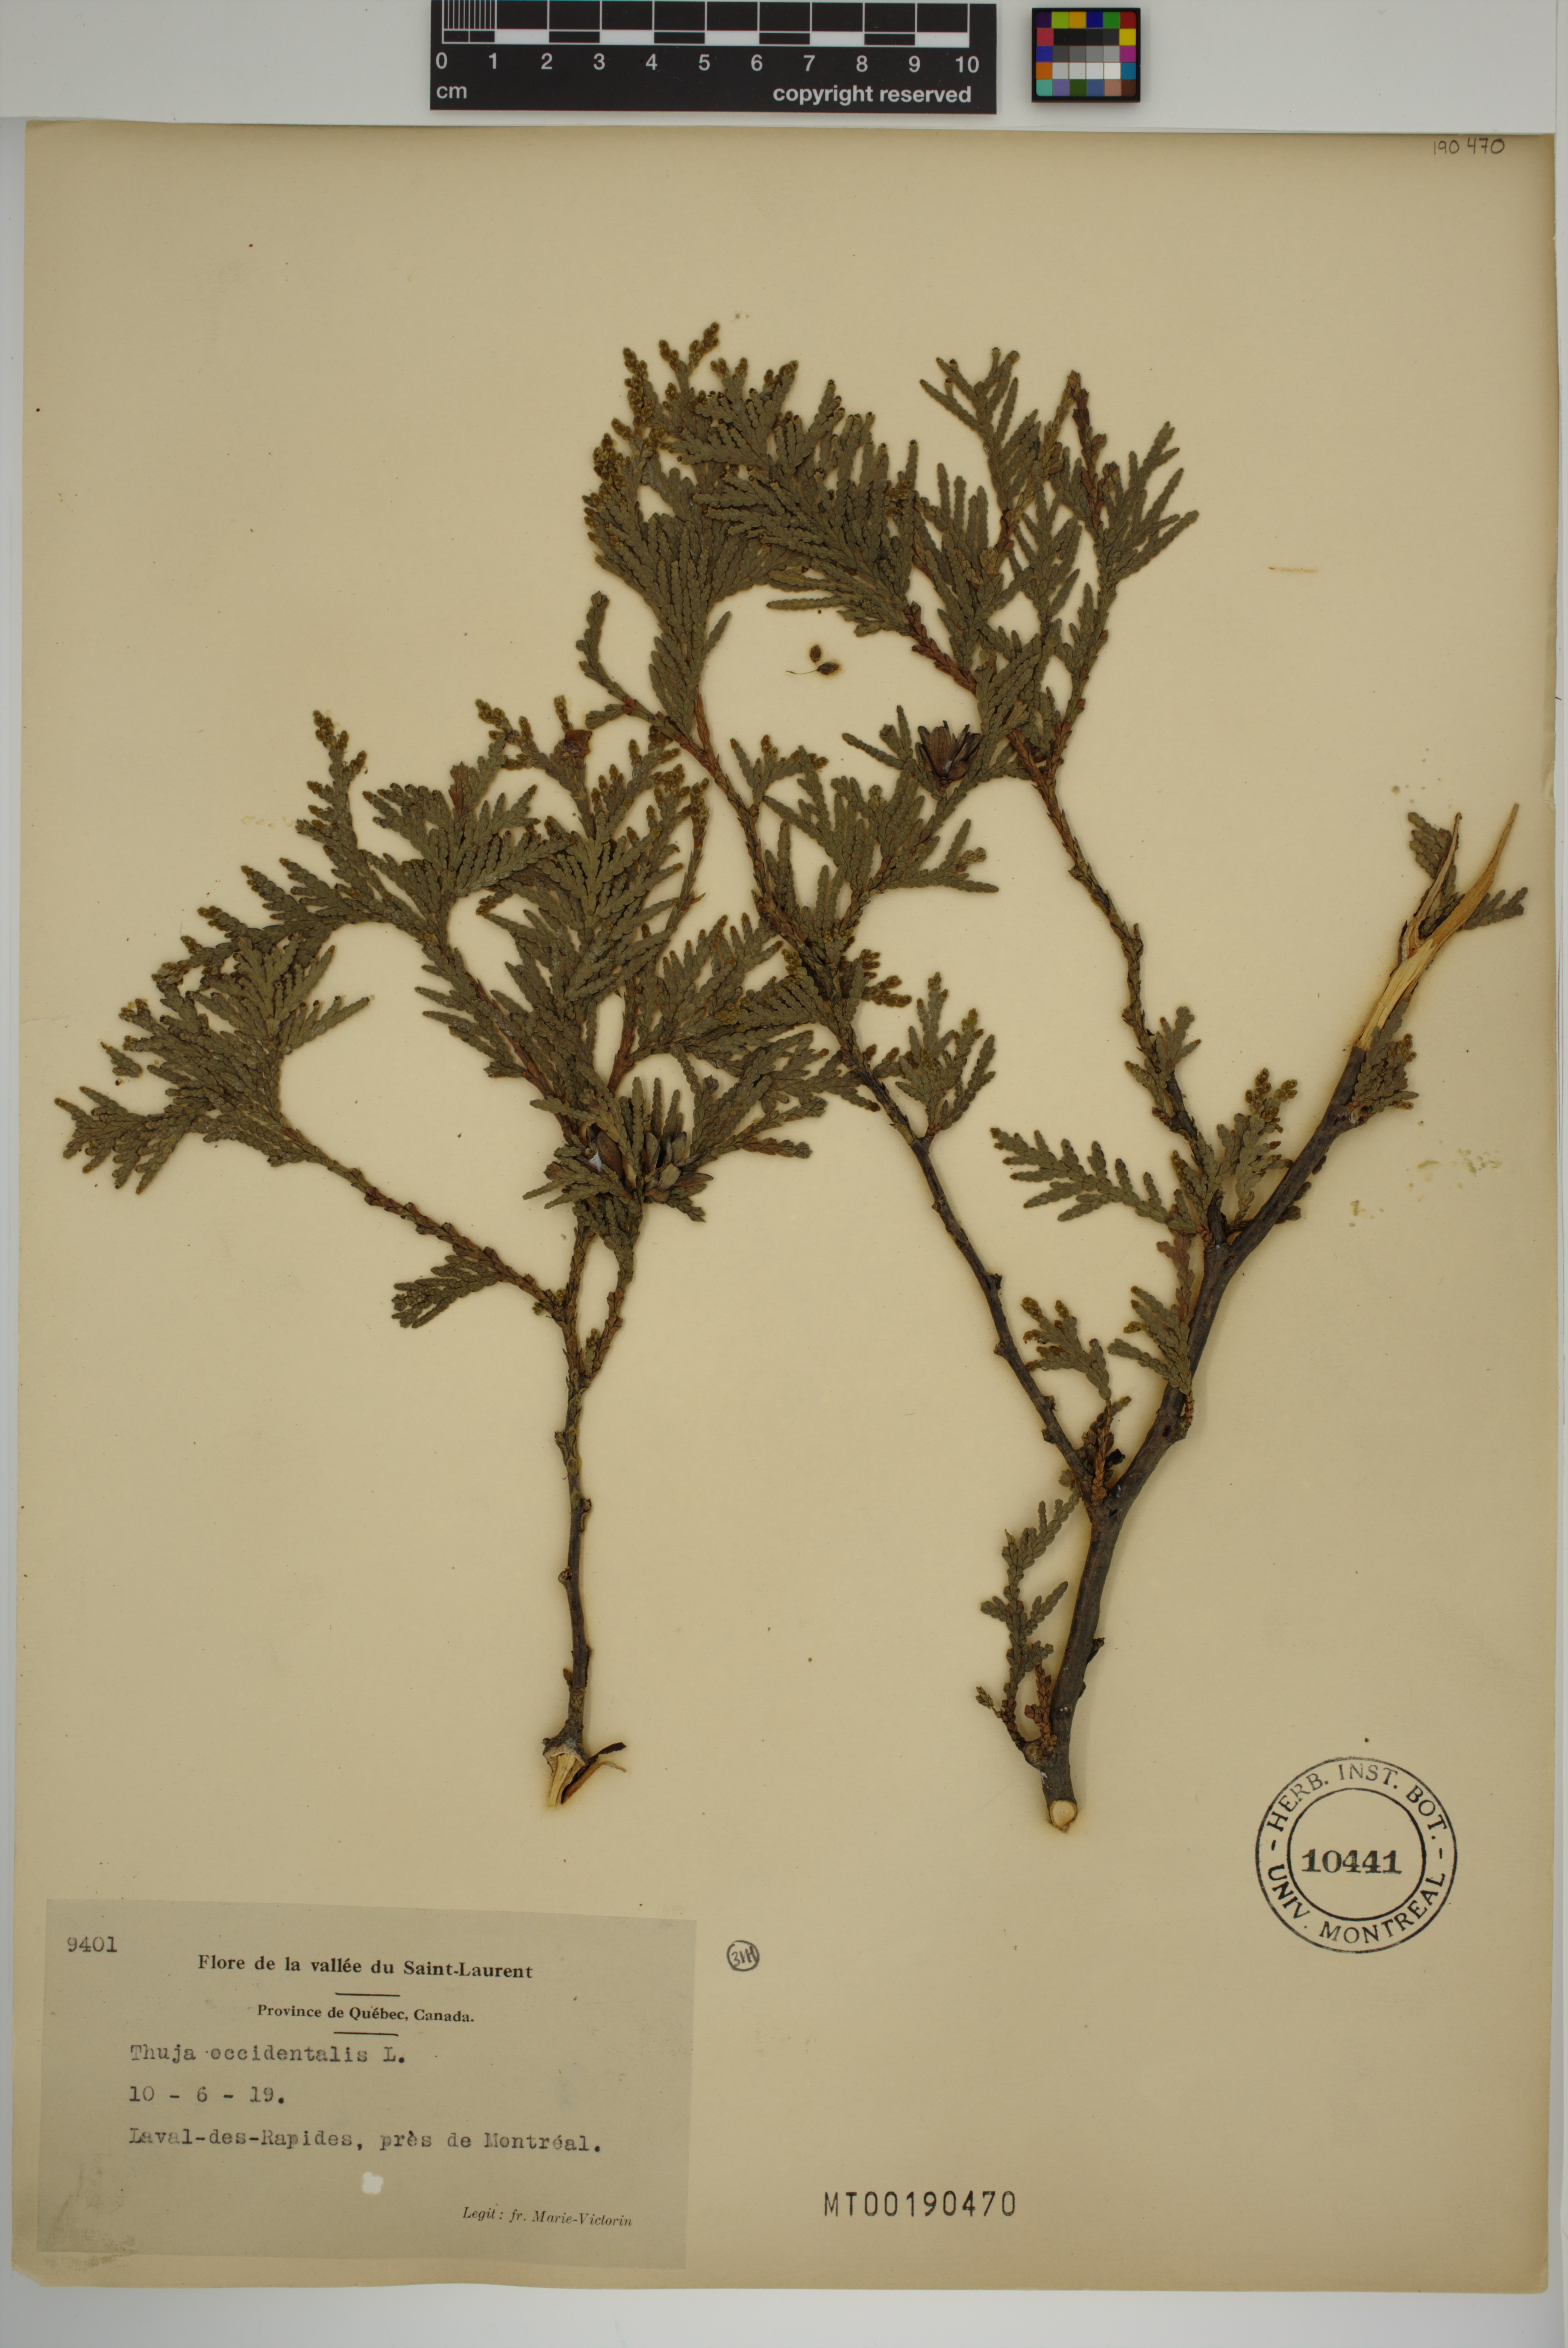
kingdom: Plantae
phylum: Tracheophyta
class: Pinopsida
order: Pinales
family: Cupressaceae
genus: Thuja
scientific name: Thuja occidentalis
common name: Northern white-cedar
